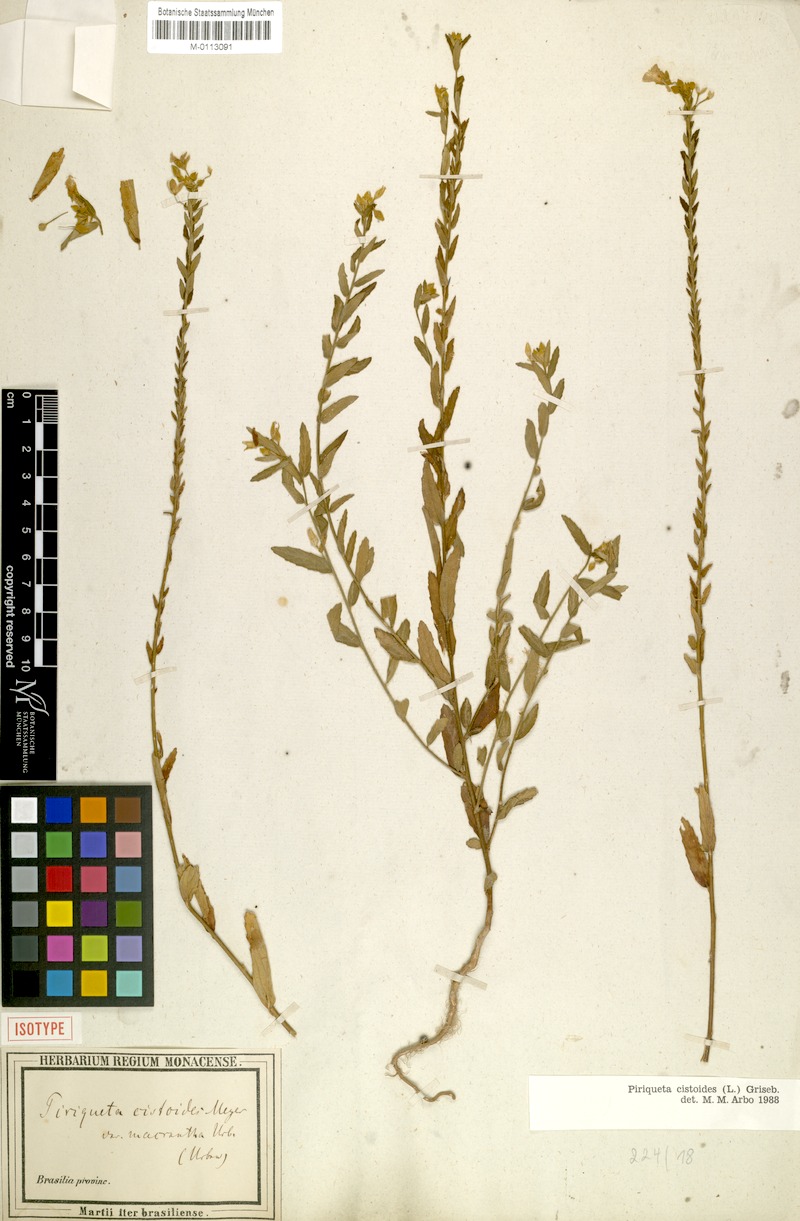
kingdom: Plantae
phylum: Tracheophyta
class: Magnoliopsida
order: Malpighiales
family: Turneraceae
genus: Piriqueta
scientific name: Piriqueta cistoides
